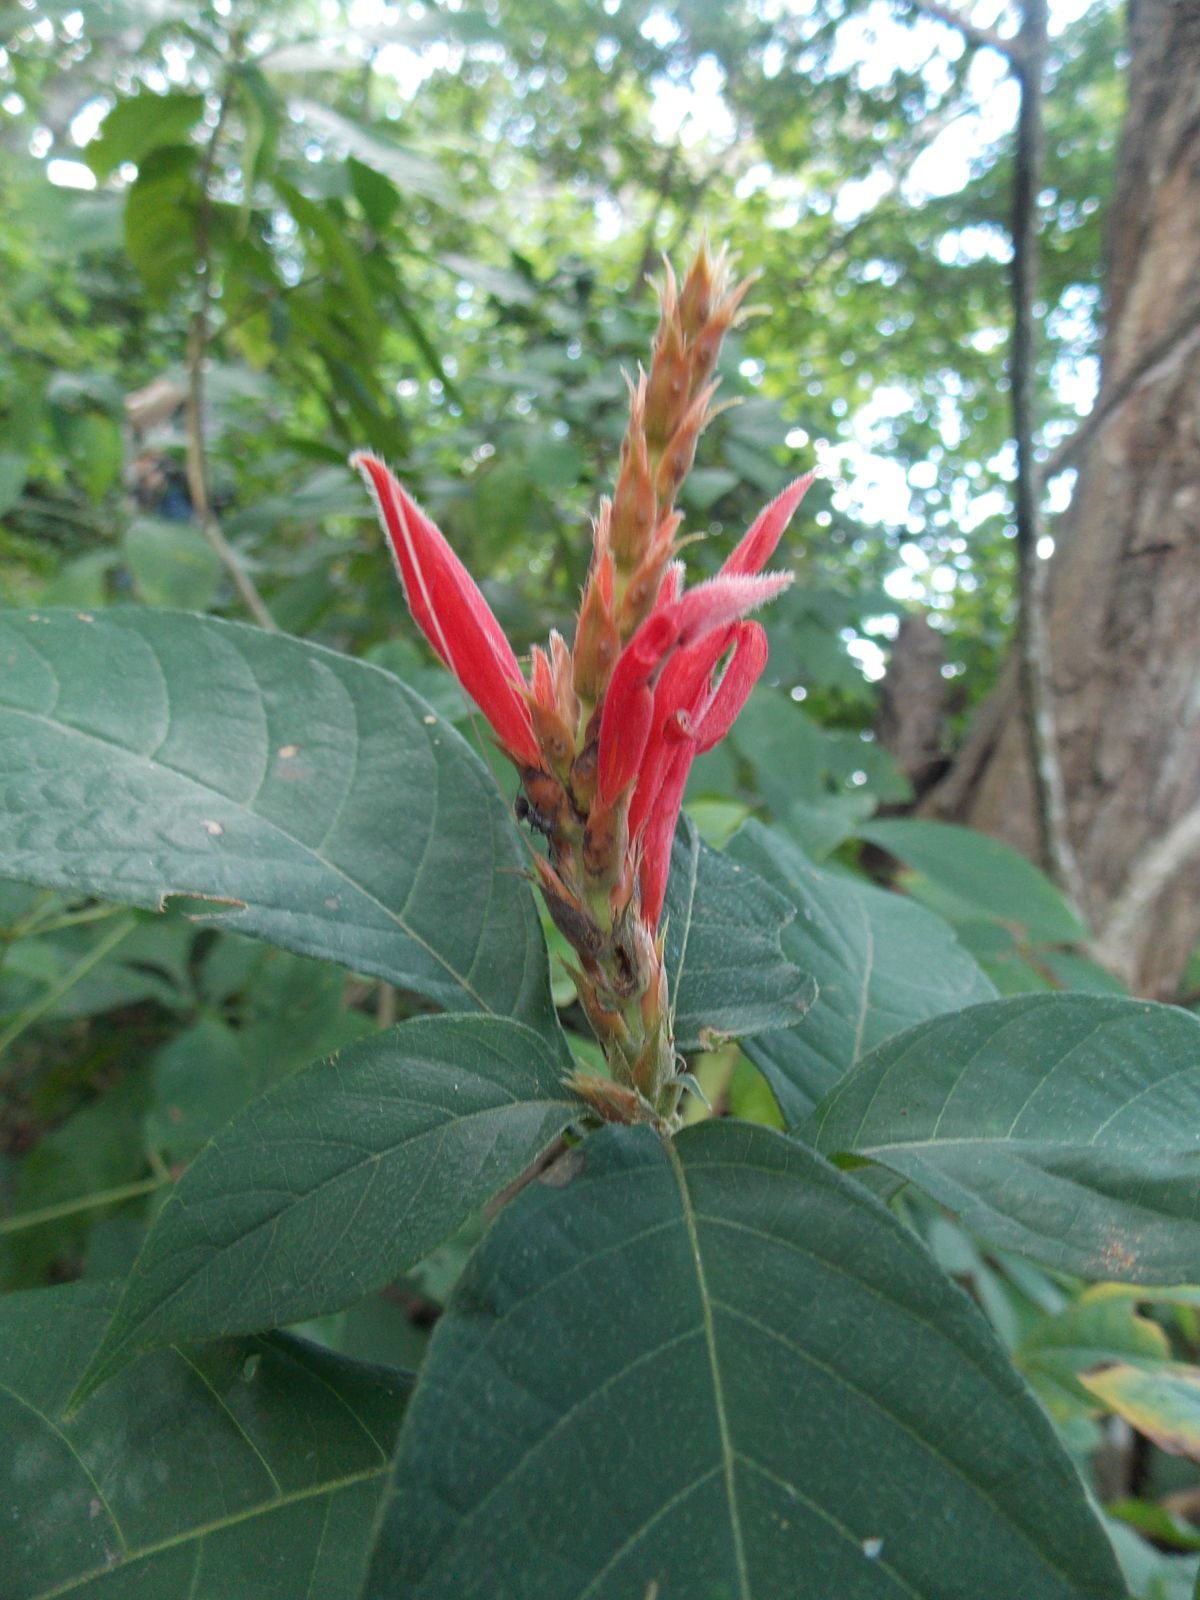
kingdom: Plantae
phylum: Tracheophyta
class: Magnoliopsida
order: Lamiales
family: Acanthaceae
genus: Aphelandra
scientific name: Aphelandra scabra
